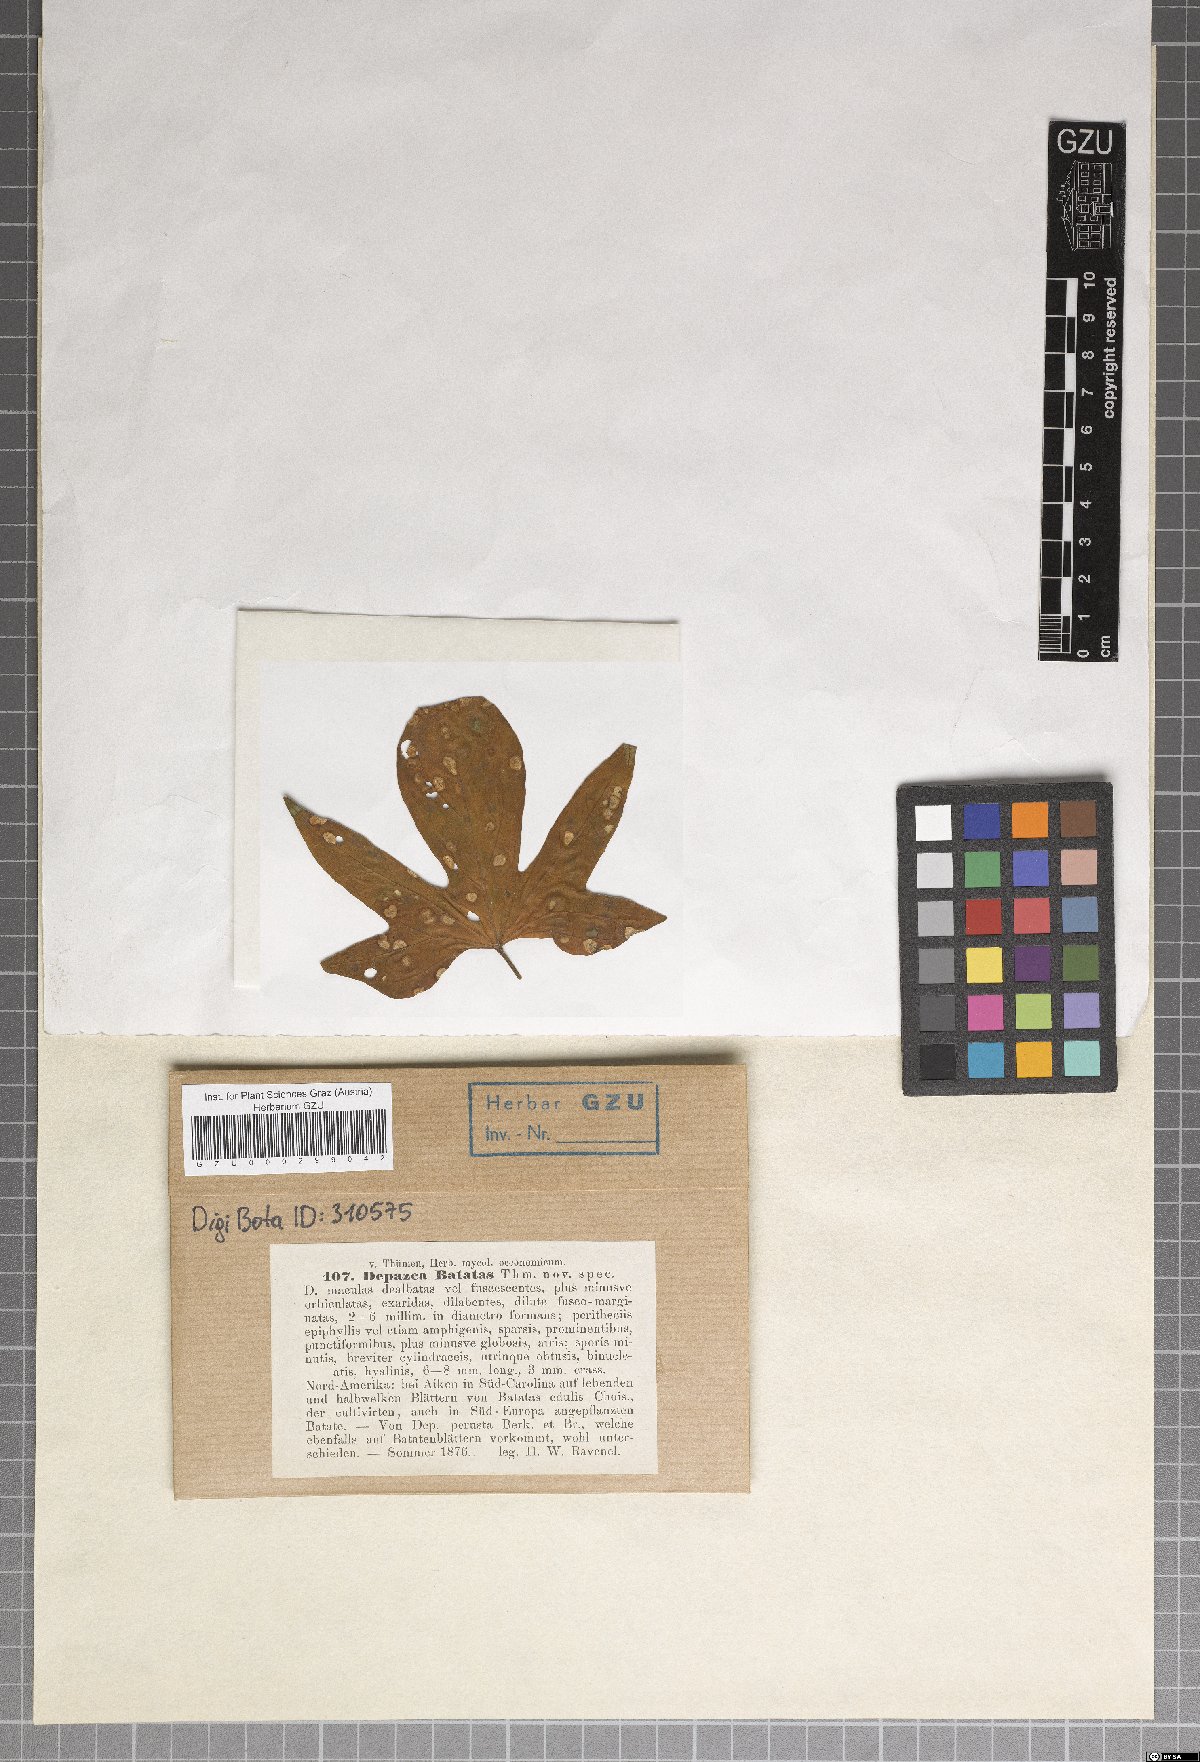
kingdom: Fungi
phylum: Ascomycota
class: Dothideomycetes
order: Botryosphaeriales
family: Phyllostictaceae
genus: Phyllosticta
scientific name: Phyllosticta batatas
